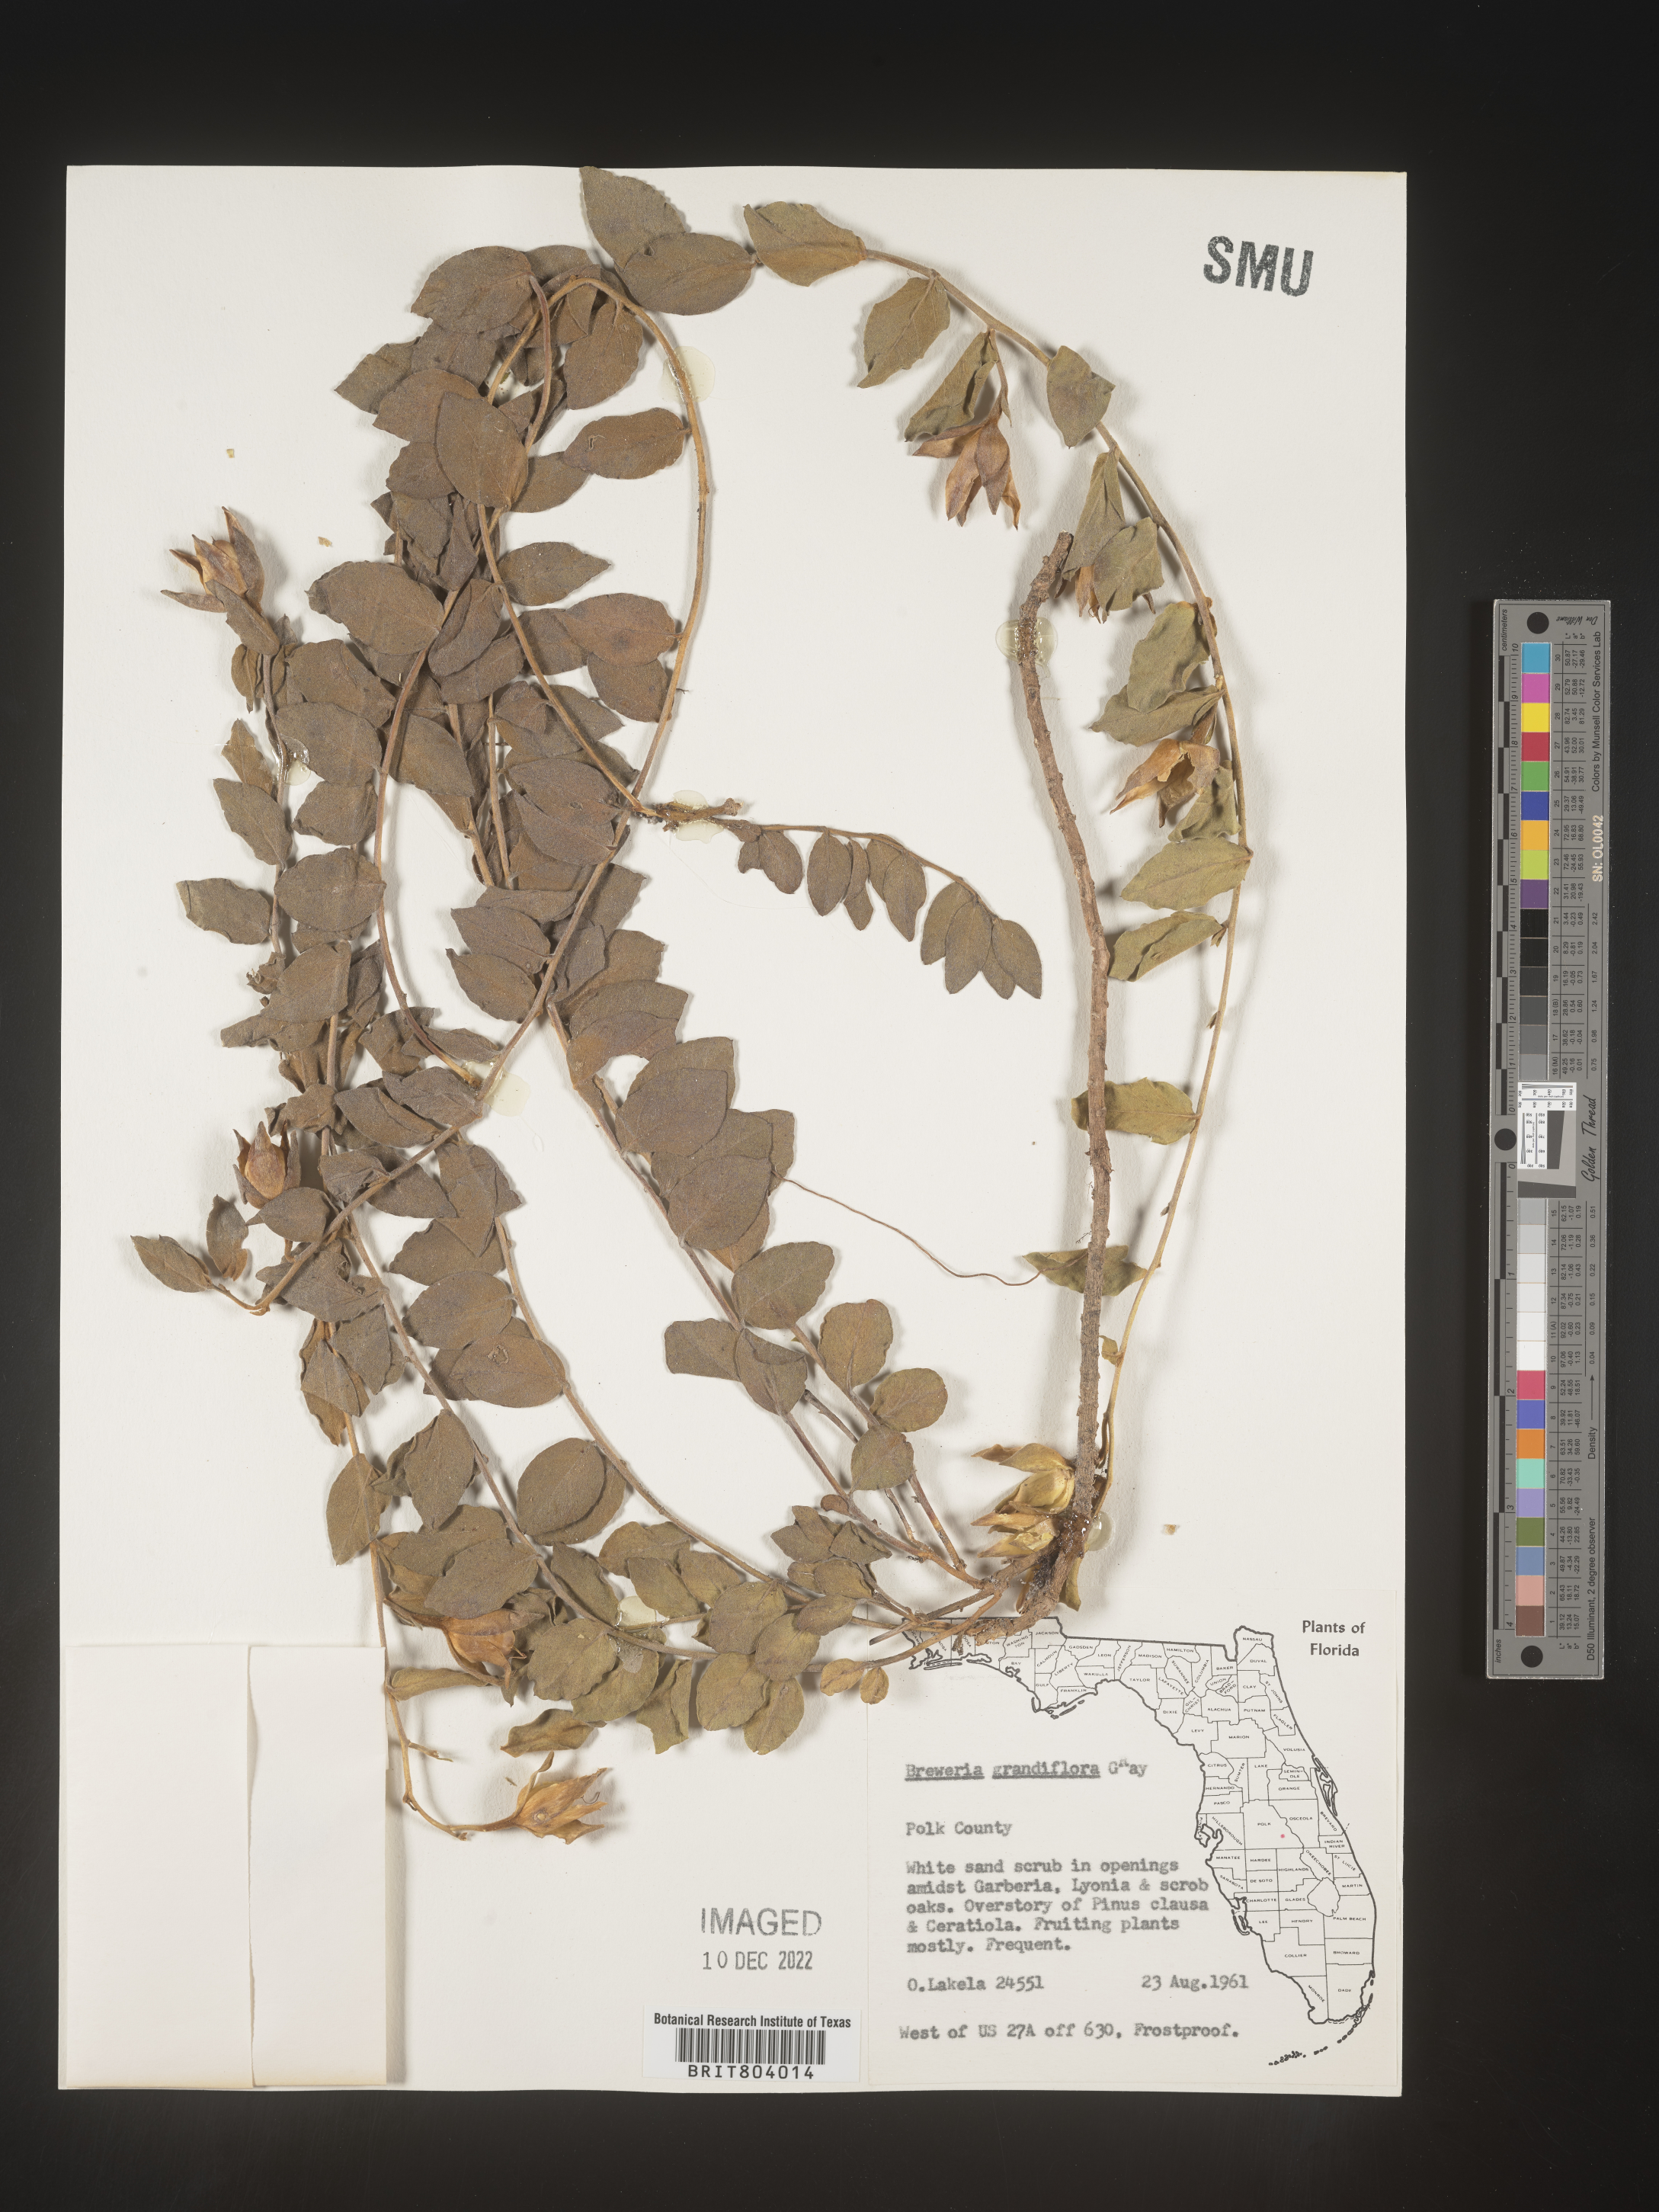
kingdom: Plantae
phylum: Tracheophyta
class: Magnoliopsida
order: Solanales
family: Convolvulaceae
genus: Bonamia
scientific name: Bonamia
